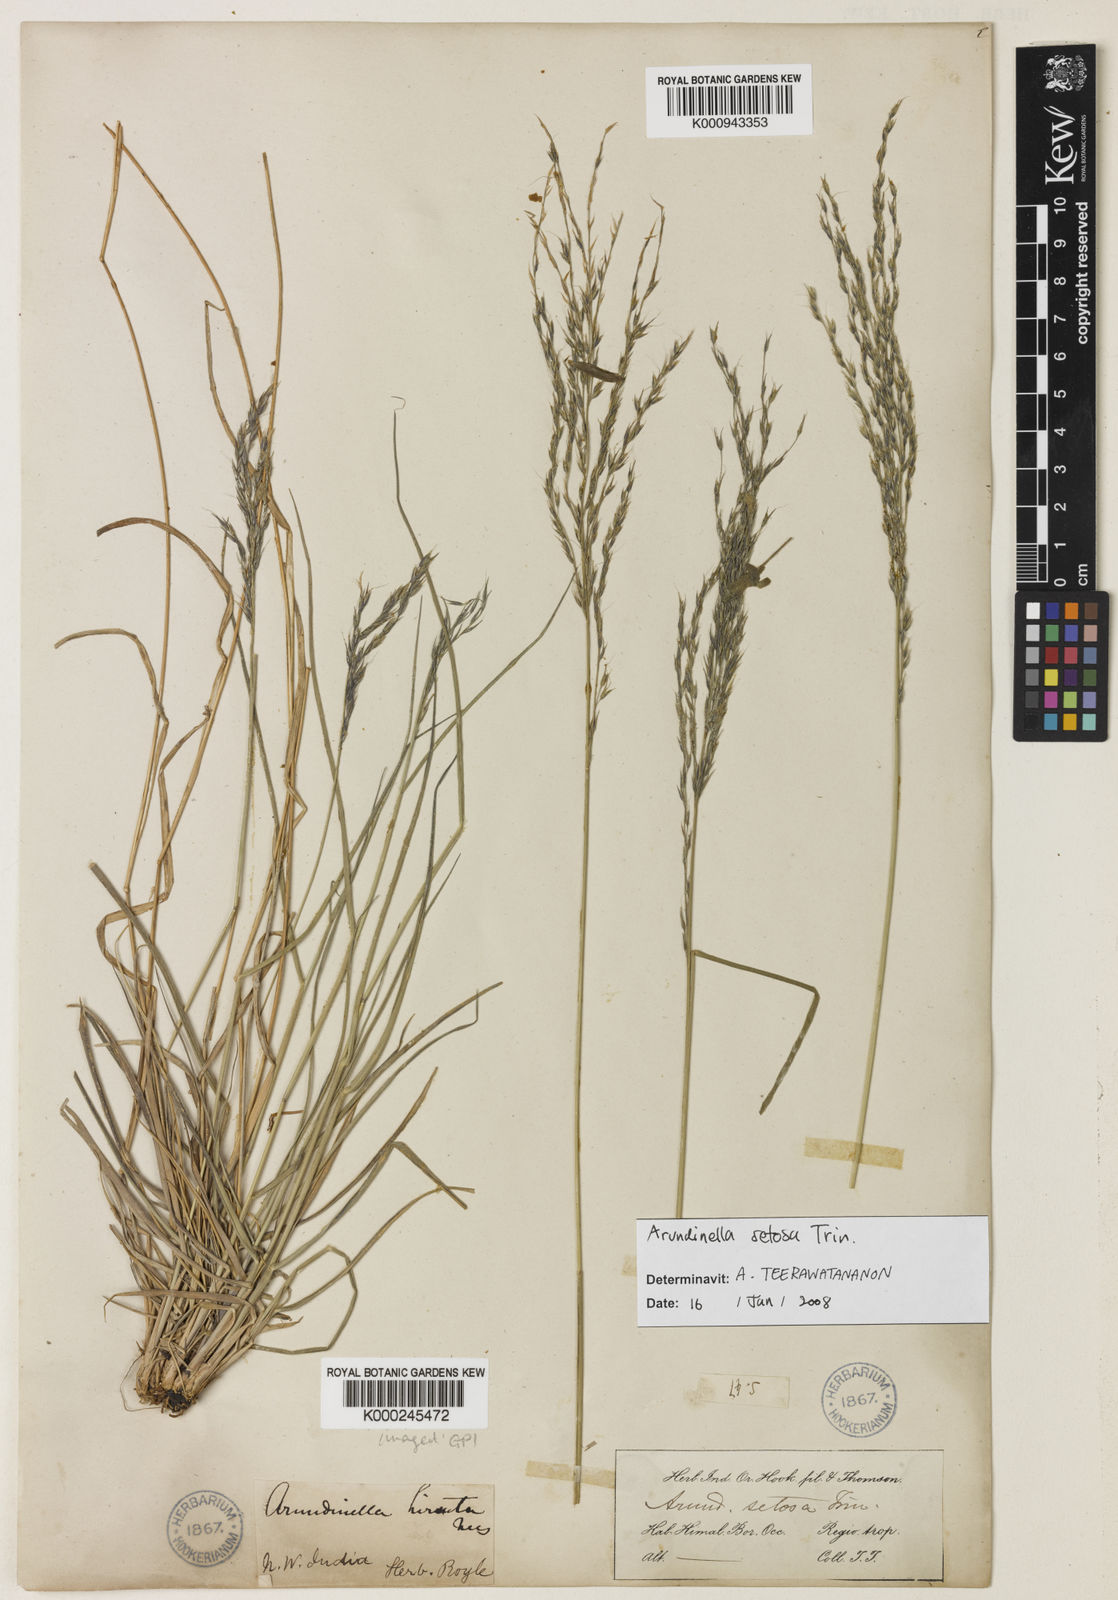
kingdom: Plantae
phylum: Tracheophyta
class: Liliopsida
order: Poales
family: Poaceae
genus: Arundinella
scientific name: Arundinella setosa
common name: Reed grass
